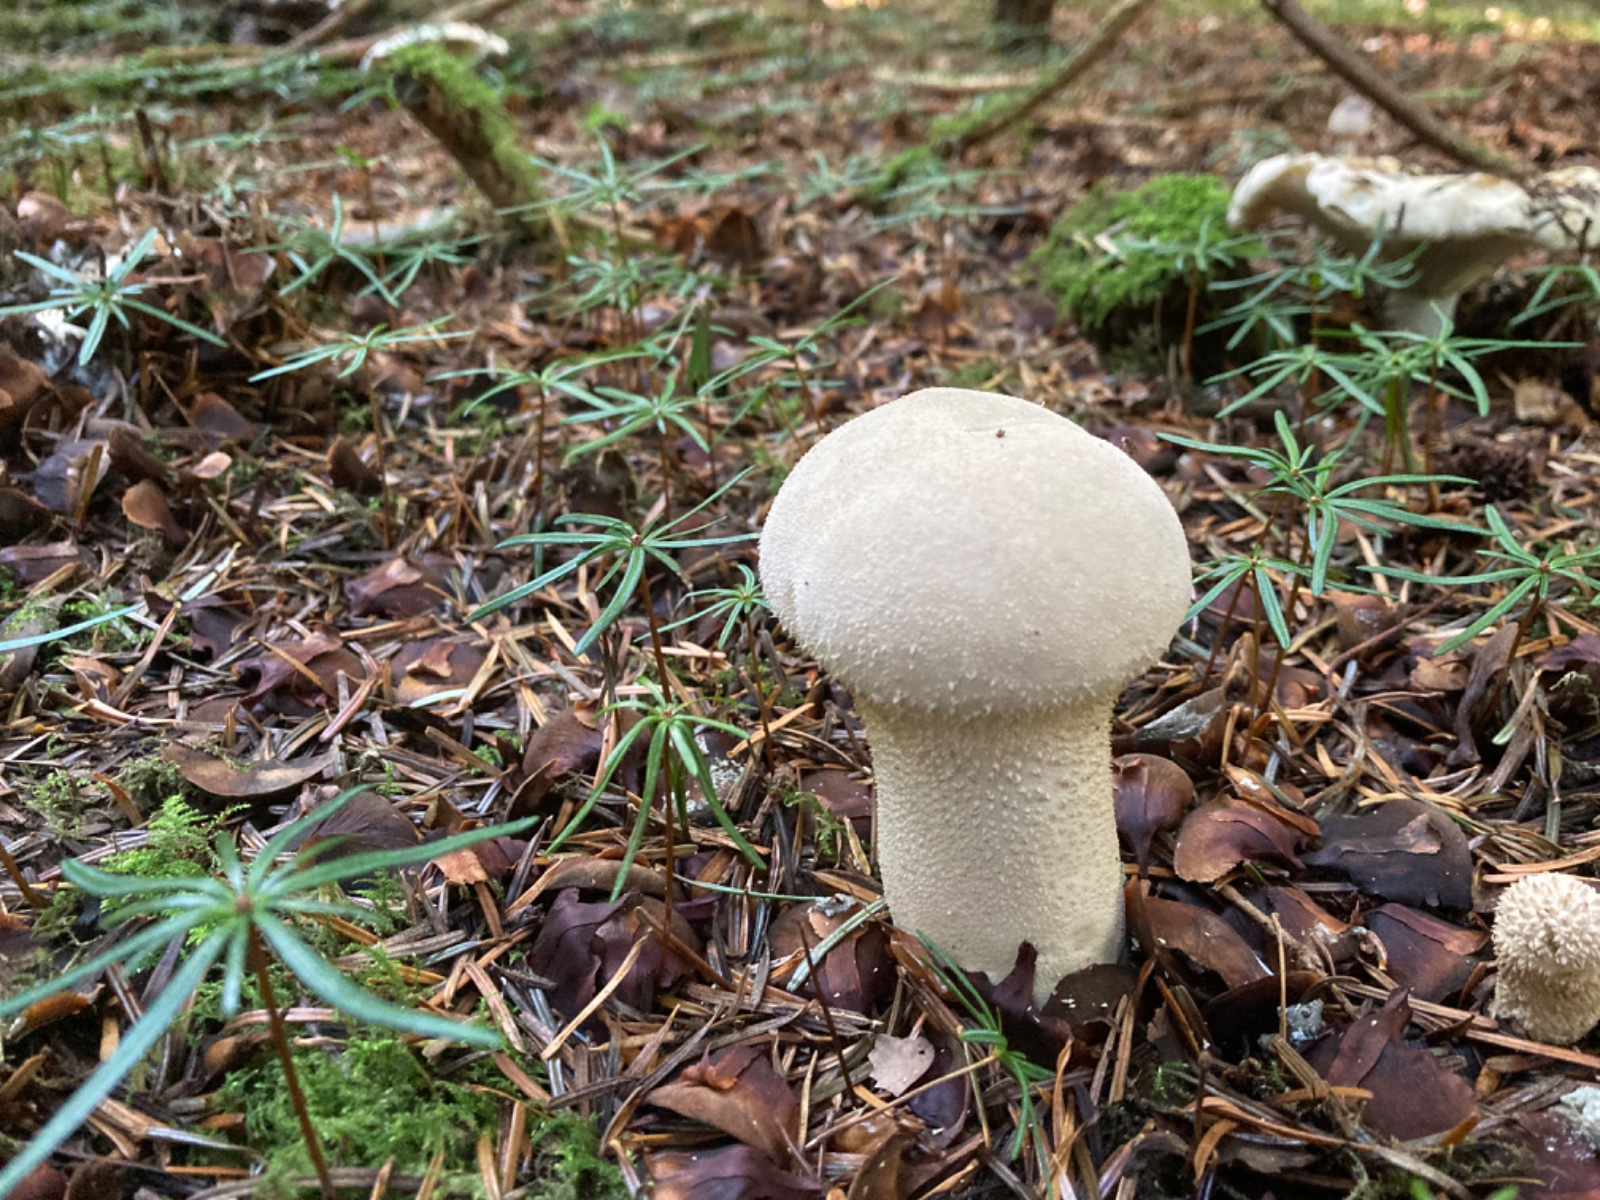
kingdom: Fungi
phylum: Basidiomycota
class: Agaricomycetes
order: Agaricales
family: Lycoperdaceae
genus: Lycoperdon
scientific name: Lycoperdon excipuliforme
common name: højstokket støvbold
